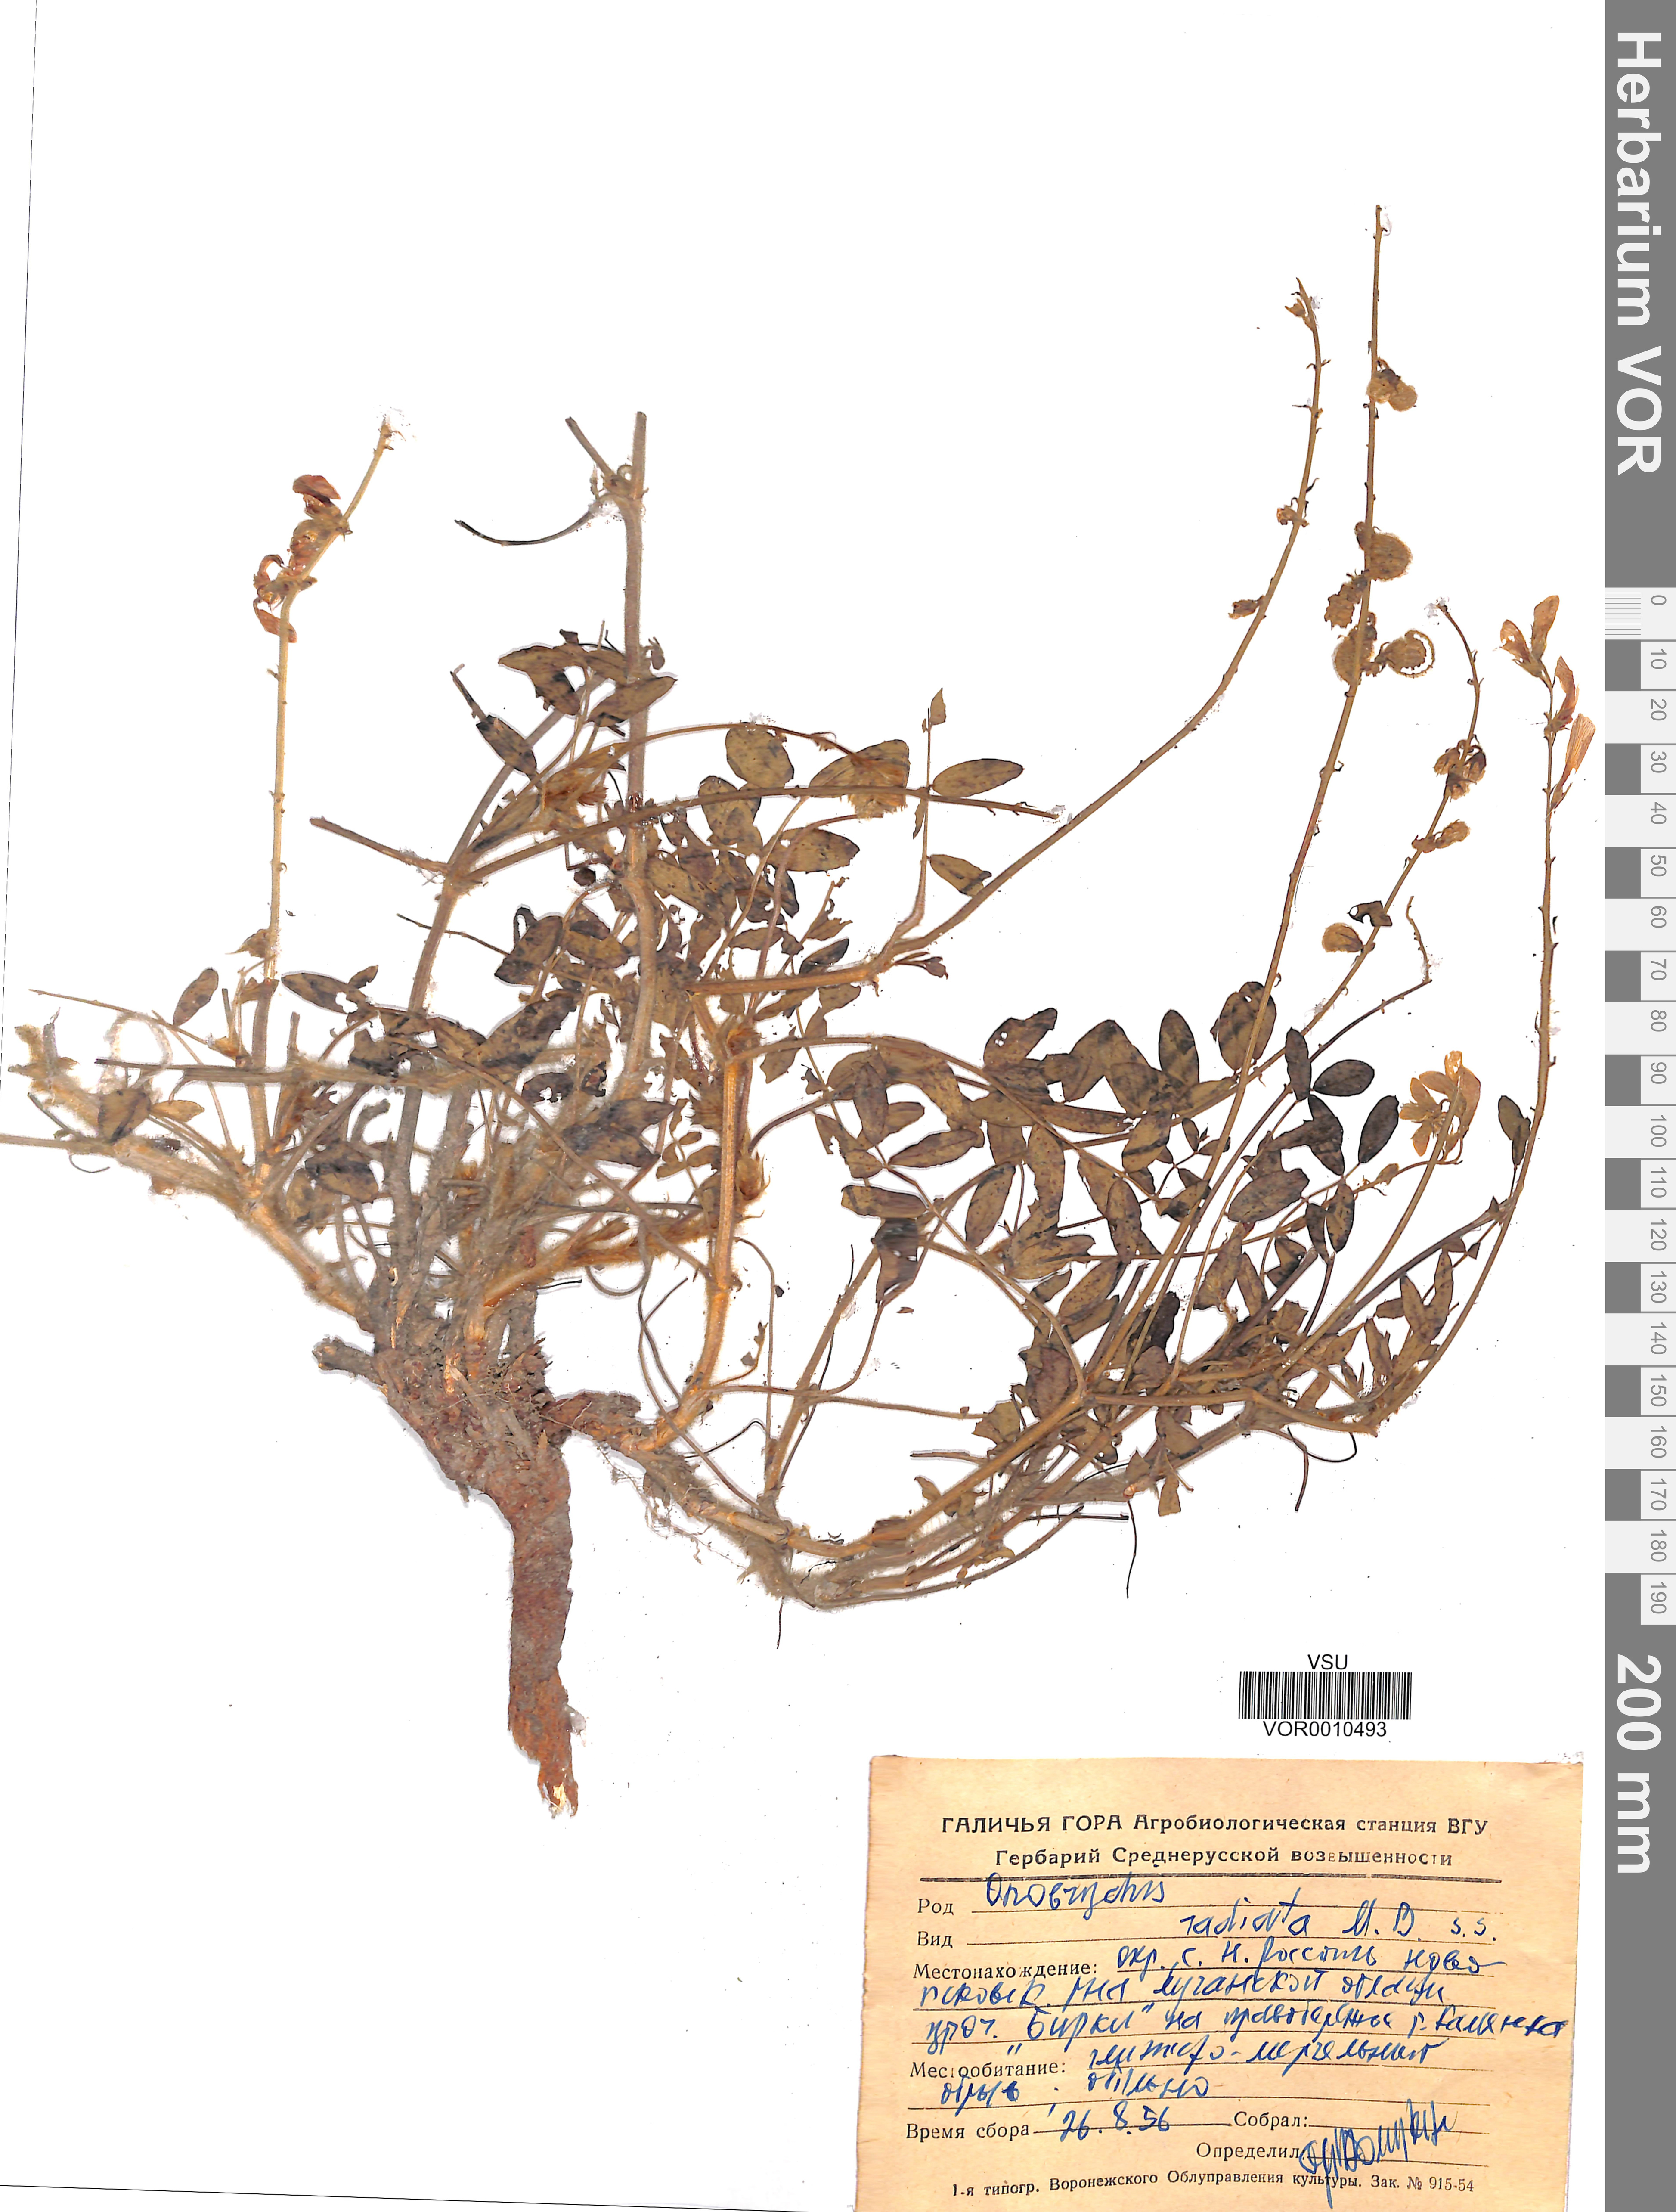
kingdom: Plantae
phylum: Tracheophyta
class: Magnoliopsida
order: Fabales
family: Fabaceae
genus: Onobrychis
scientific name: Onobrychis radiata
